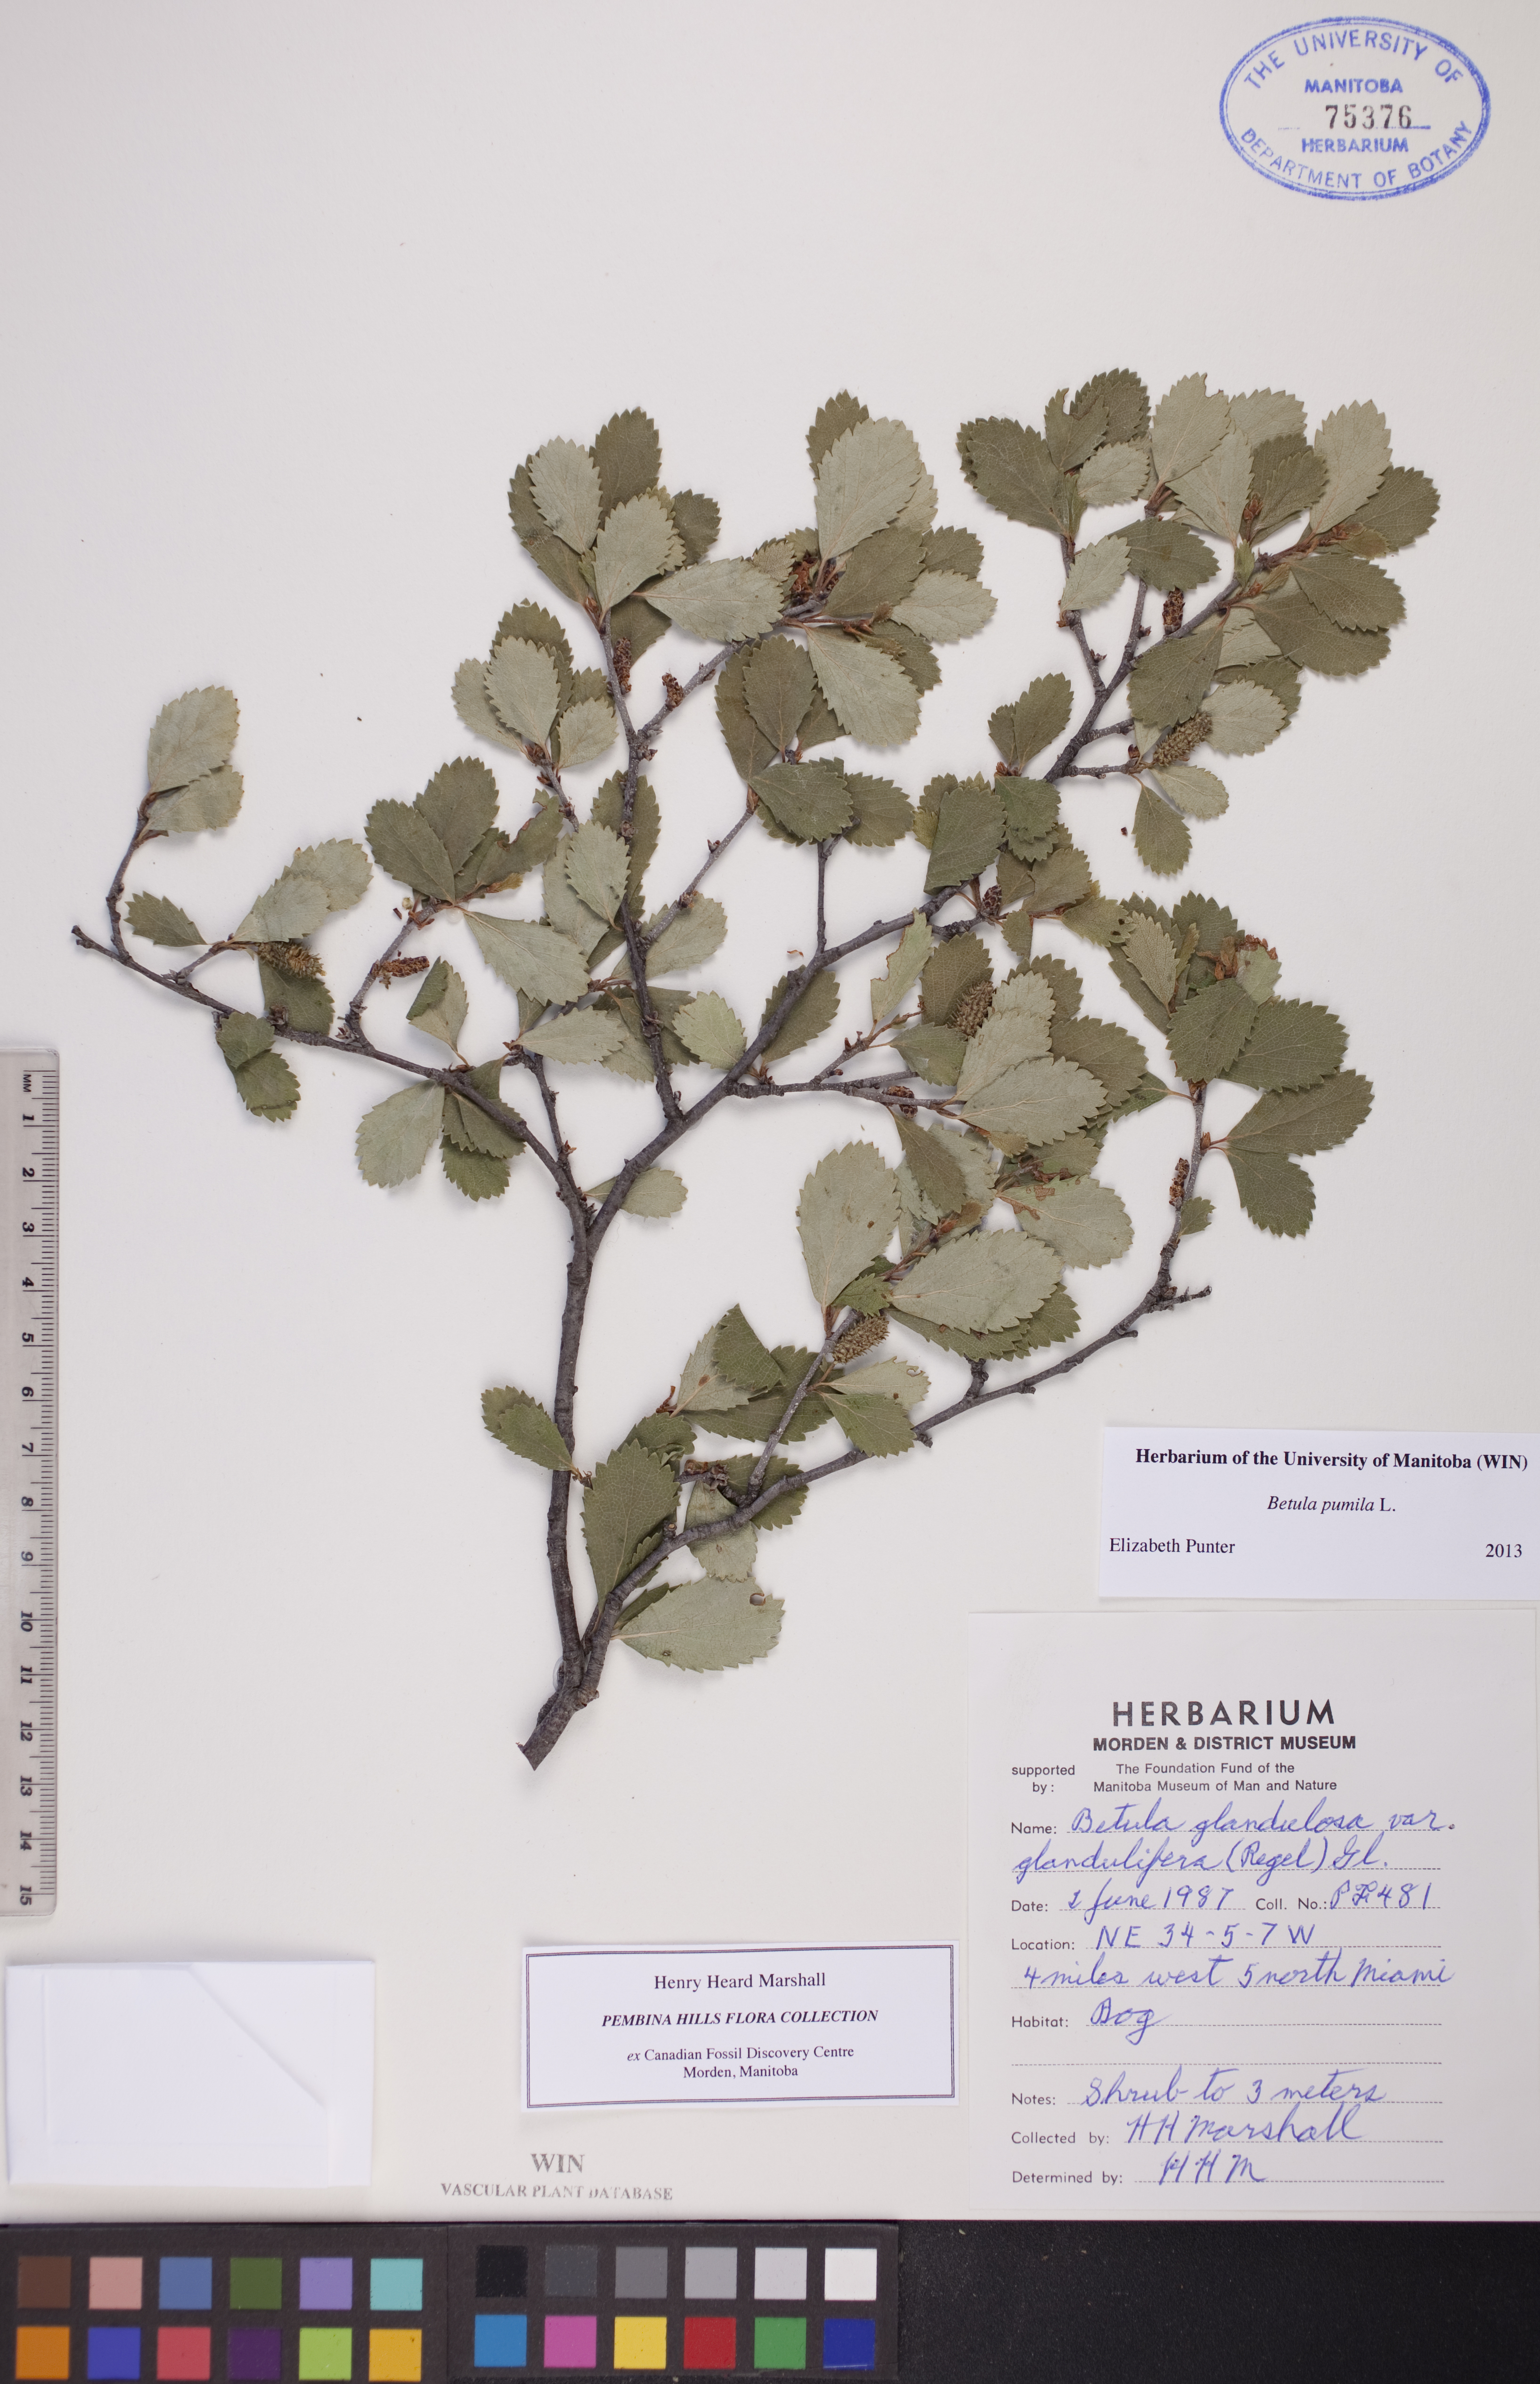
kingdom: Plantae
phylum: Tracheophyta
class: Magnoliopsida
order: Fagales
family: Betulaceae
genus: Betula
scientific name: Betula pumila
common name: Bog birch
